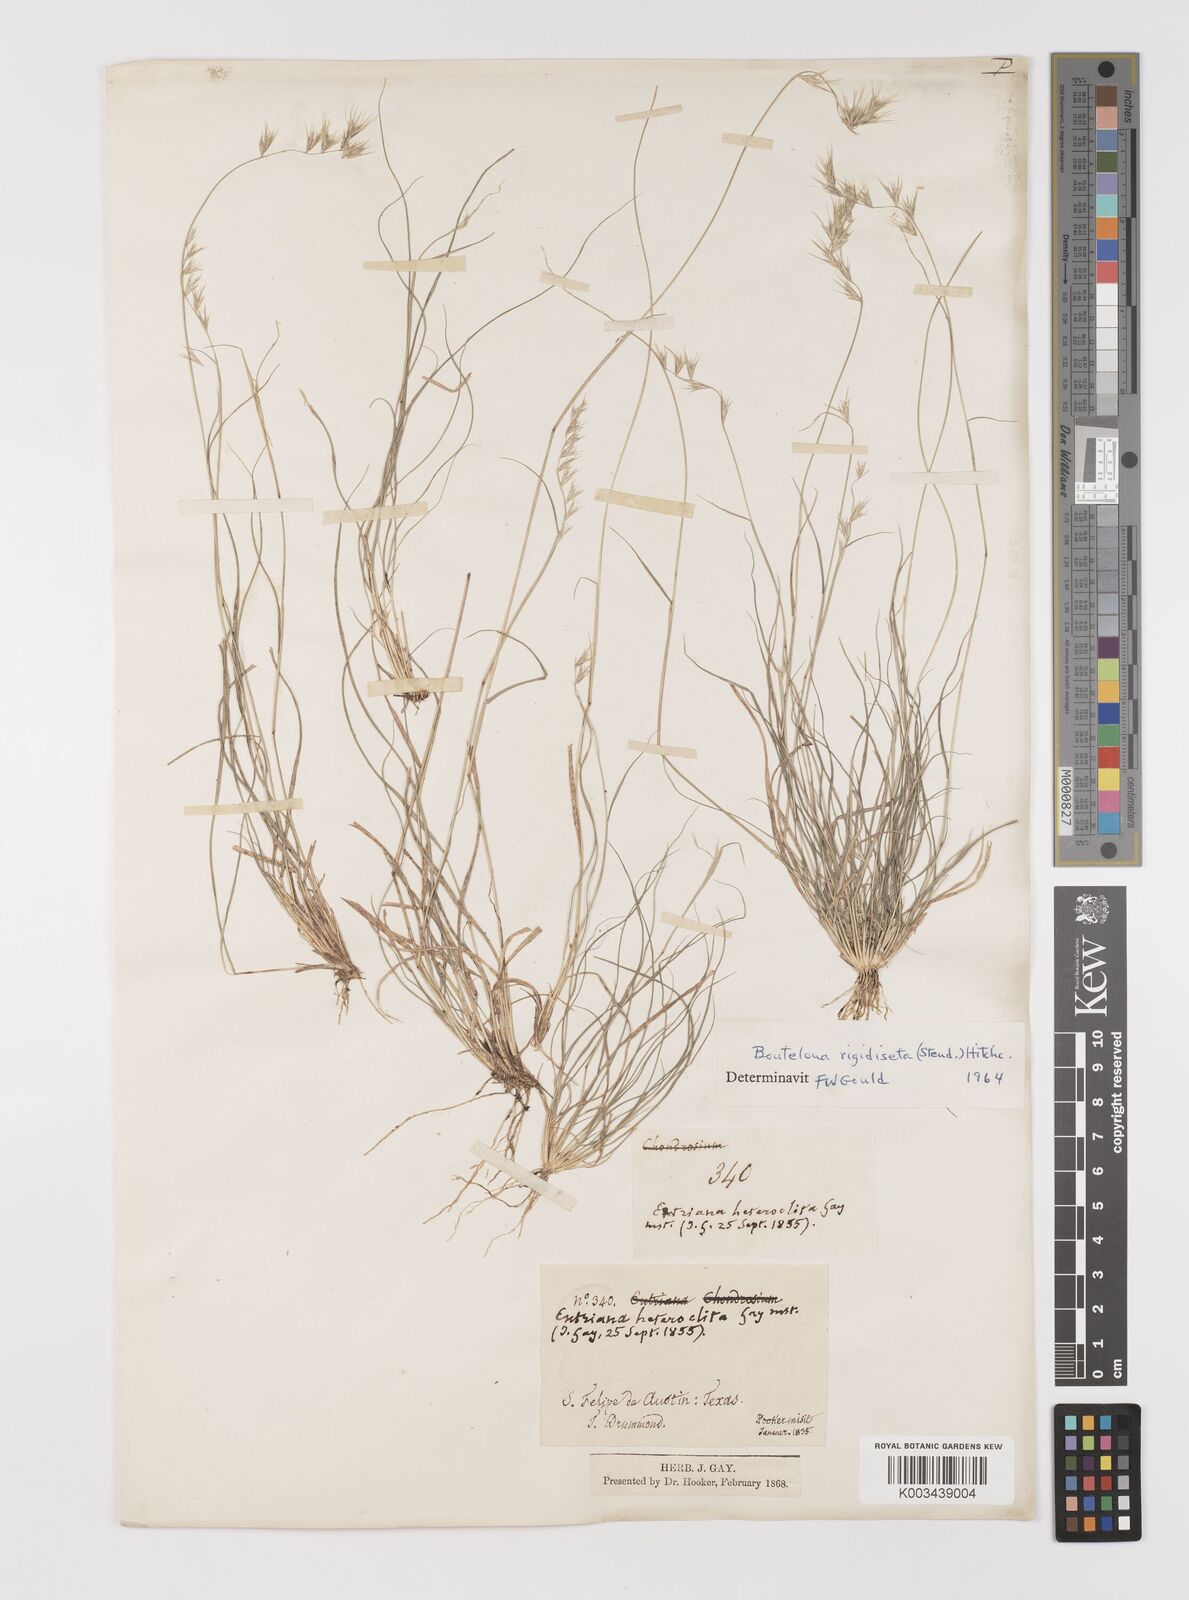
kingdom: Plantae
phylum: Tracheophyta
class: Liliopsida
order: Poales
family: Poaceae
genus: Bouteloua
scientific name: Bouteloua rigidiseta
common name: Texas grama
